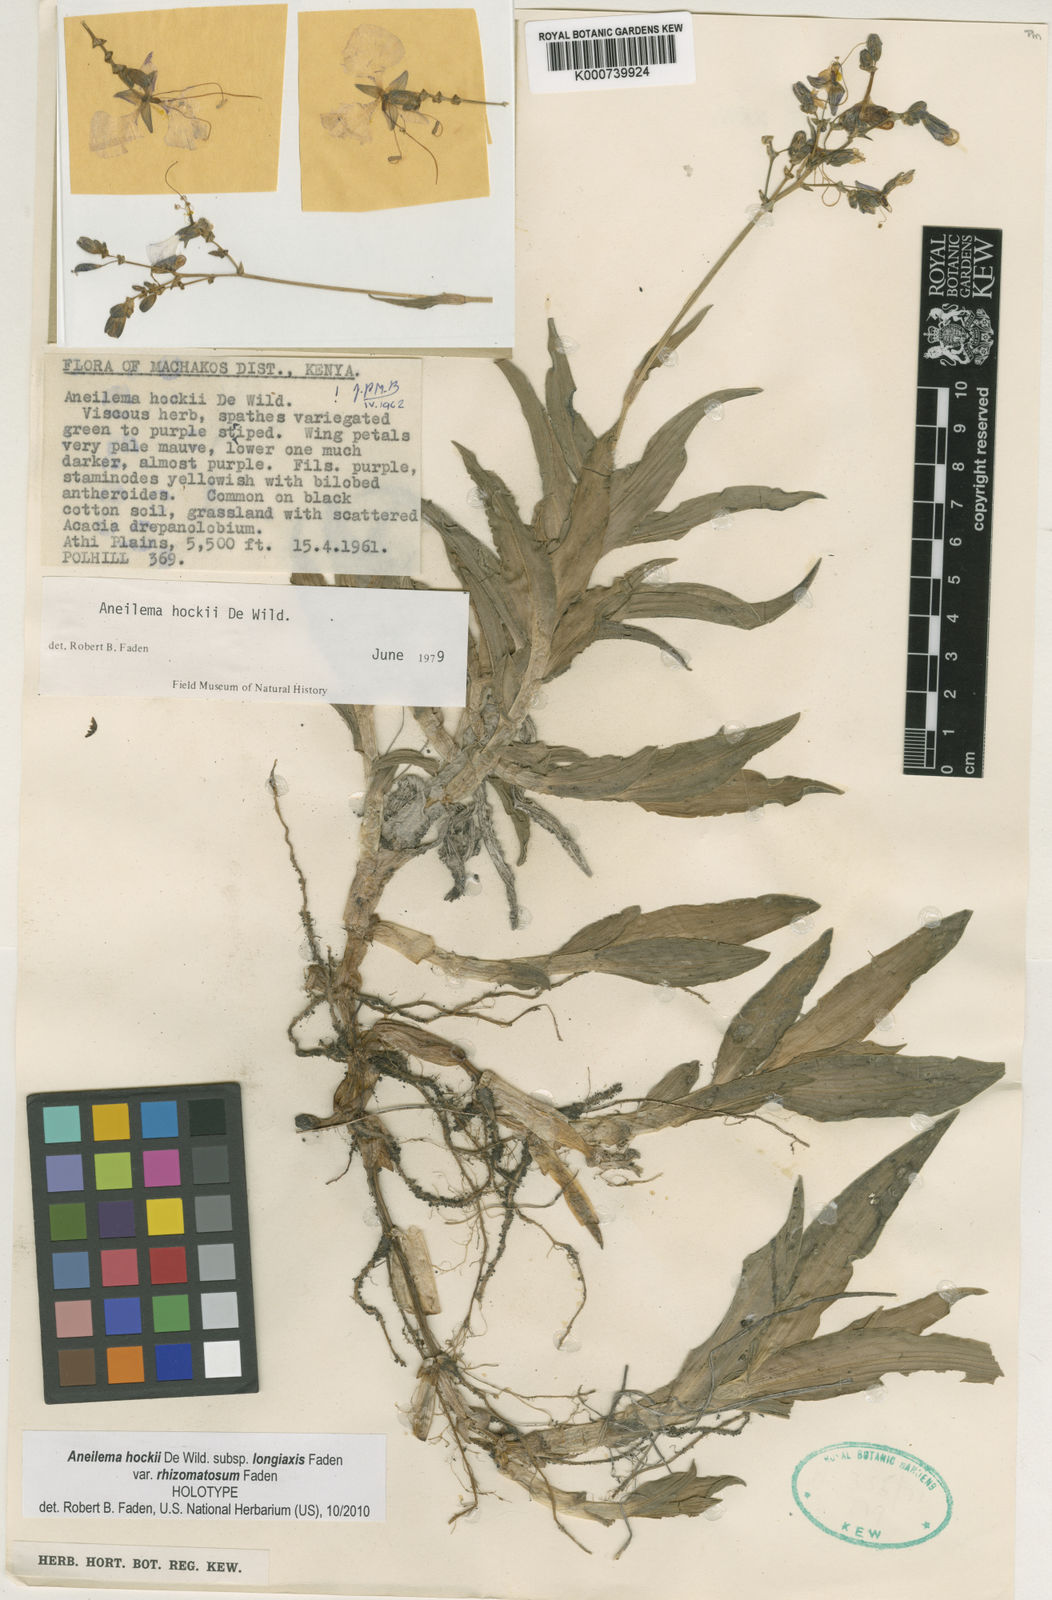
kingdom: Plantae
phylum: Tracheophyta
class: Liliopsida
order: Commelinales
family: Commelinaceae
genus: Aneilema
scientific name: Aneilema hockii
